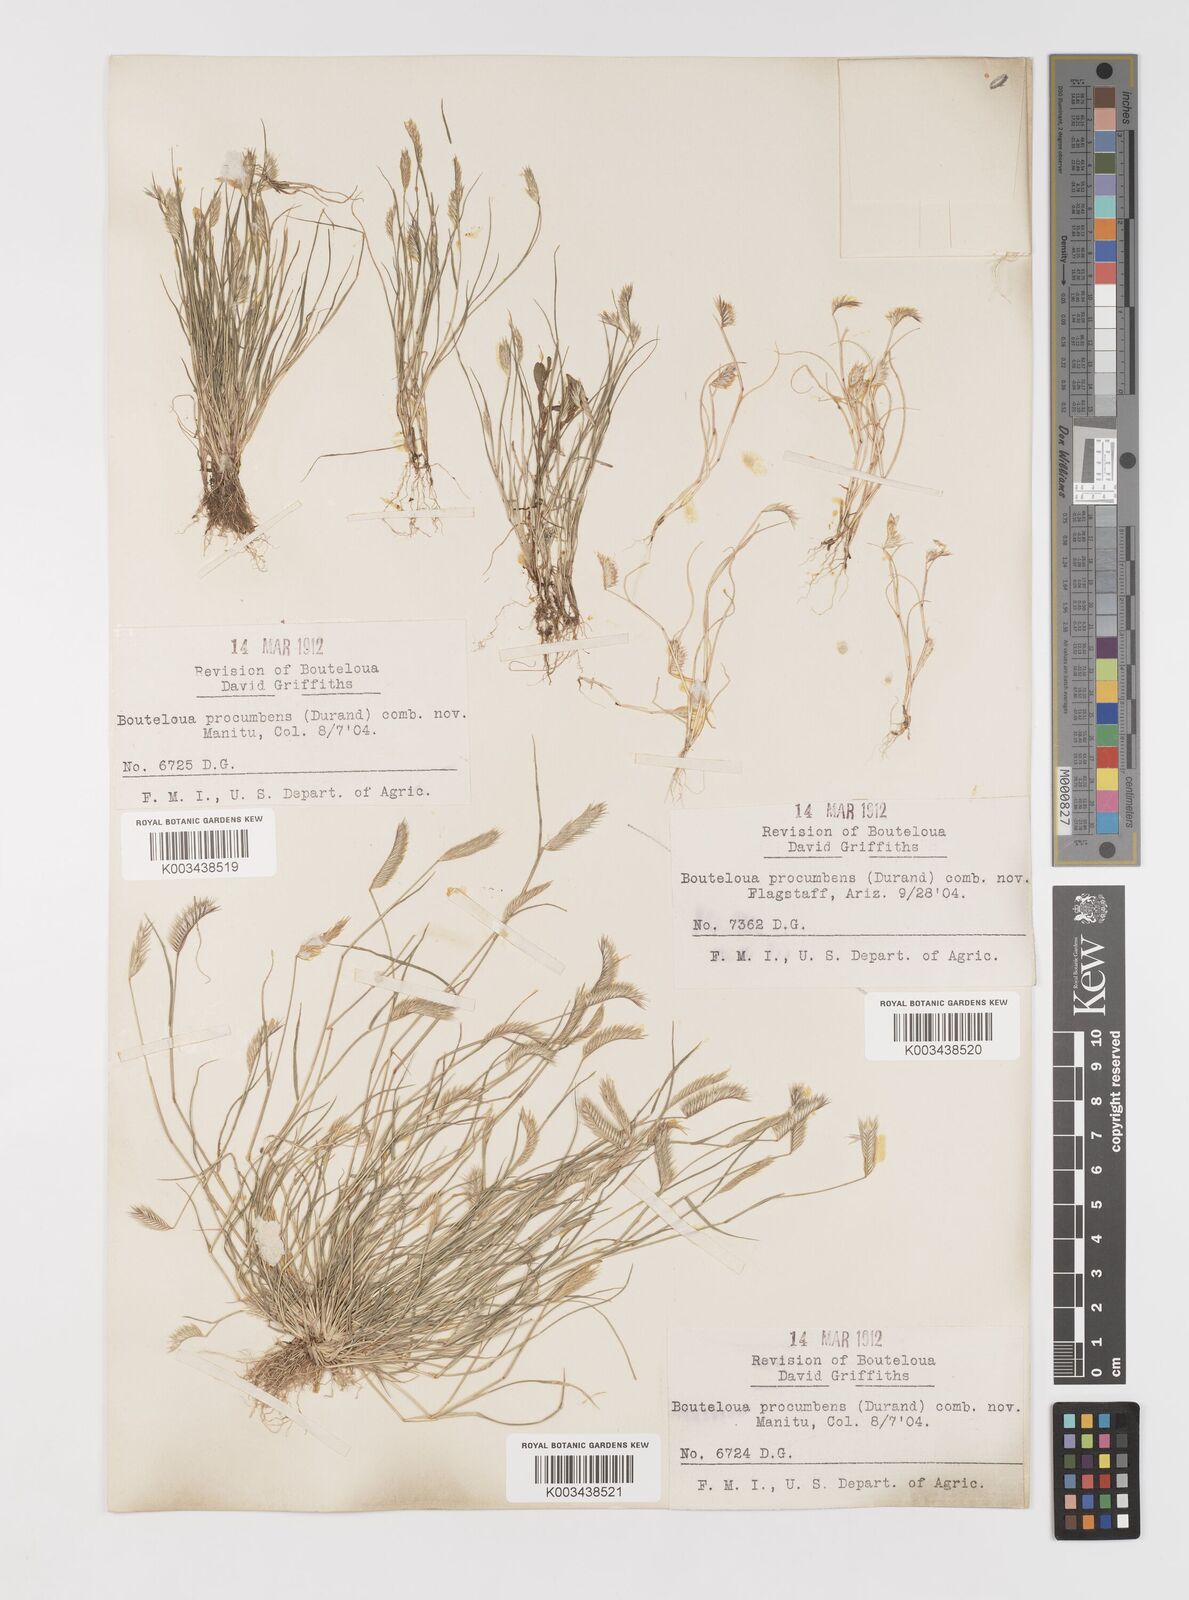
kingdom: Plantae
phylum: Tracheophyta
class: Liliopsida
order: Poales
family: Poaceae
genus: Bouteloua
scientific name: Bouteloua simplex
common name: Mat grama
